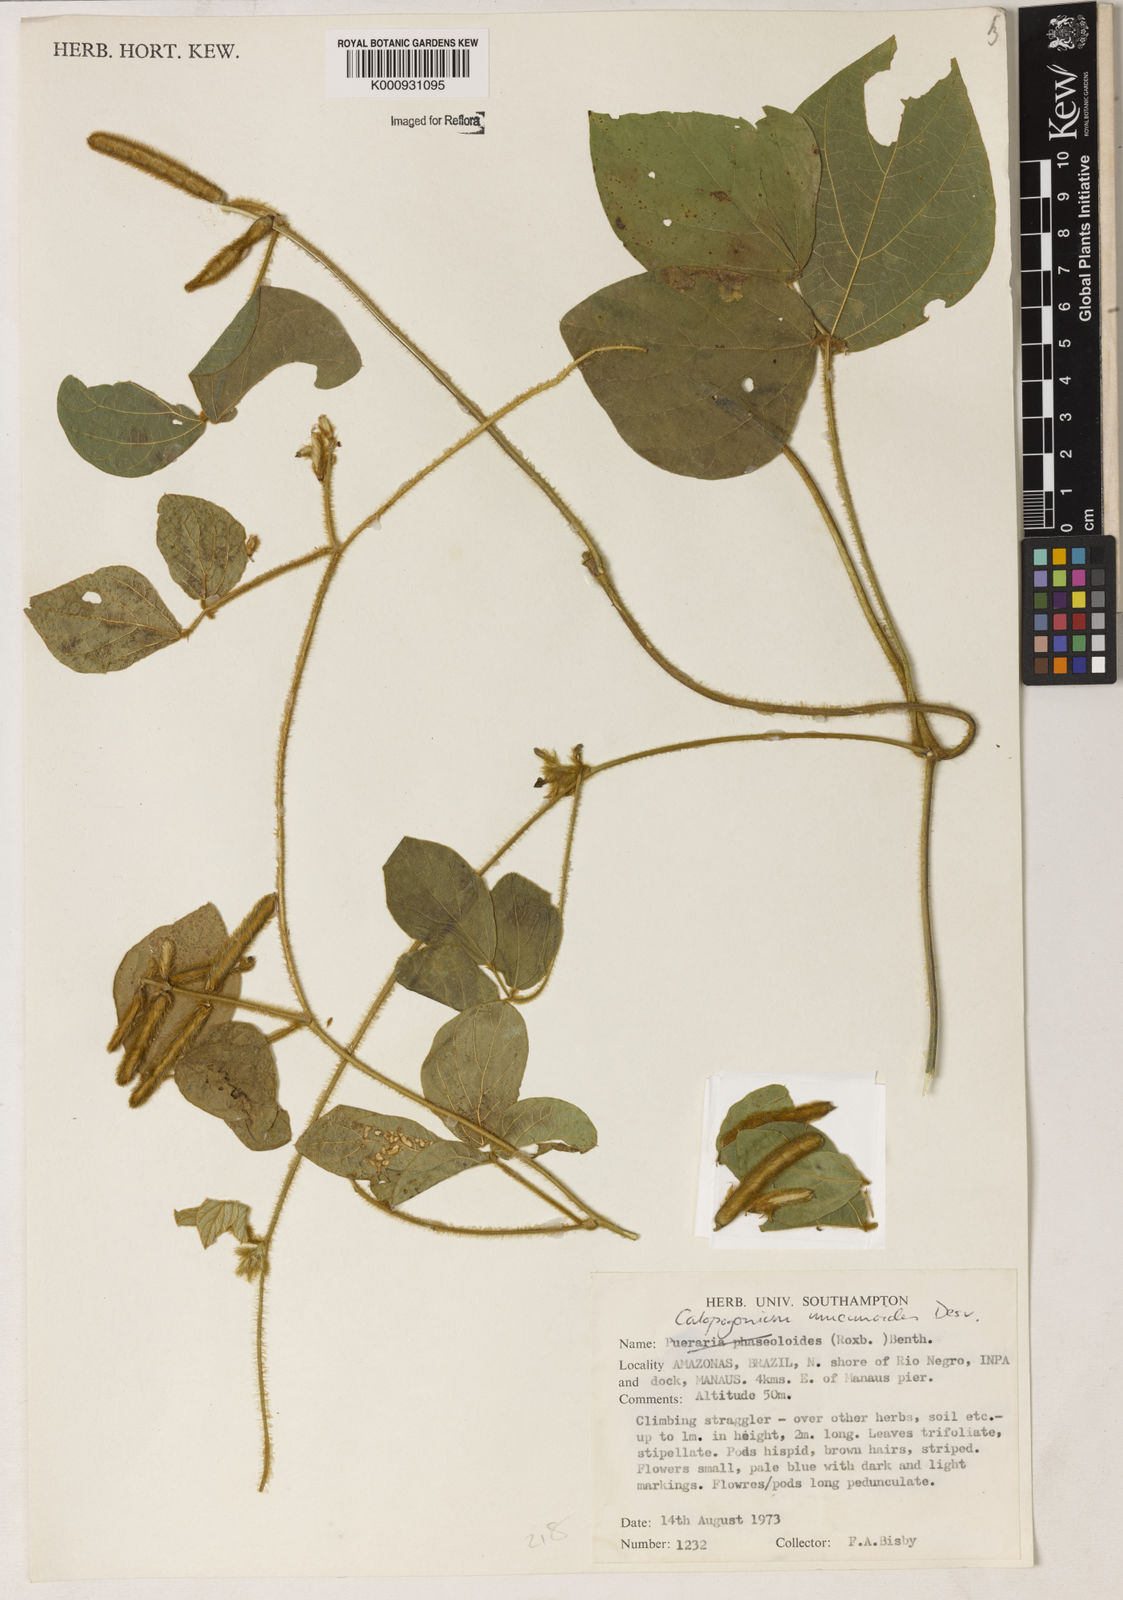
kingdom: Plantae
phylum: Tracheophyta
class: Magnoliopsida
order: Fabales
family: Fabaceae
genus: Calopogonium
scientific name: Calopogonium mucunoides
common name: Calopo
